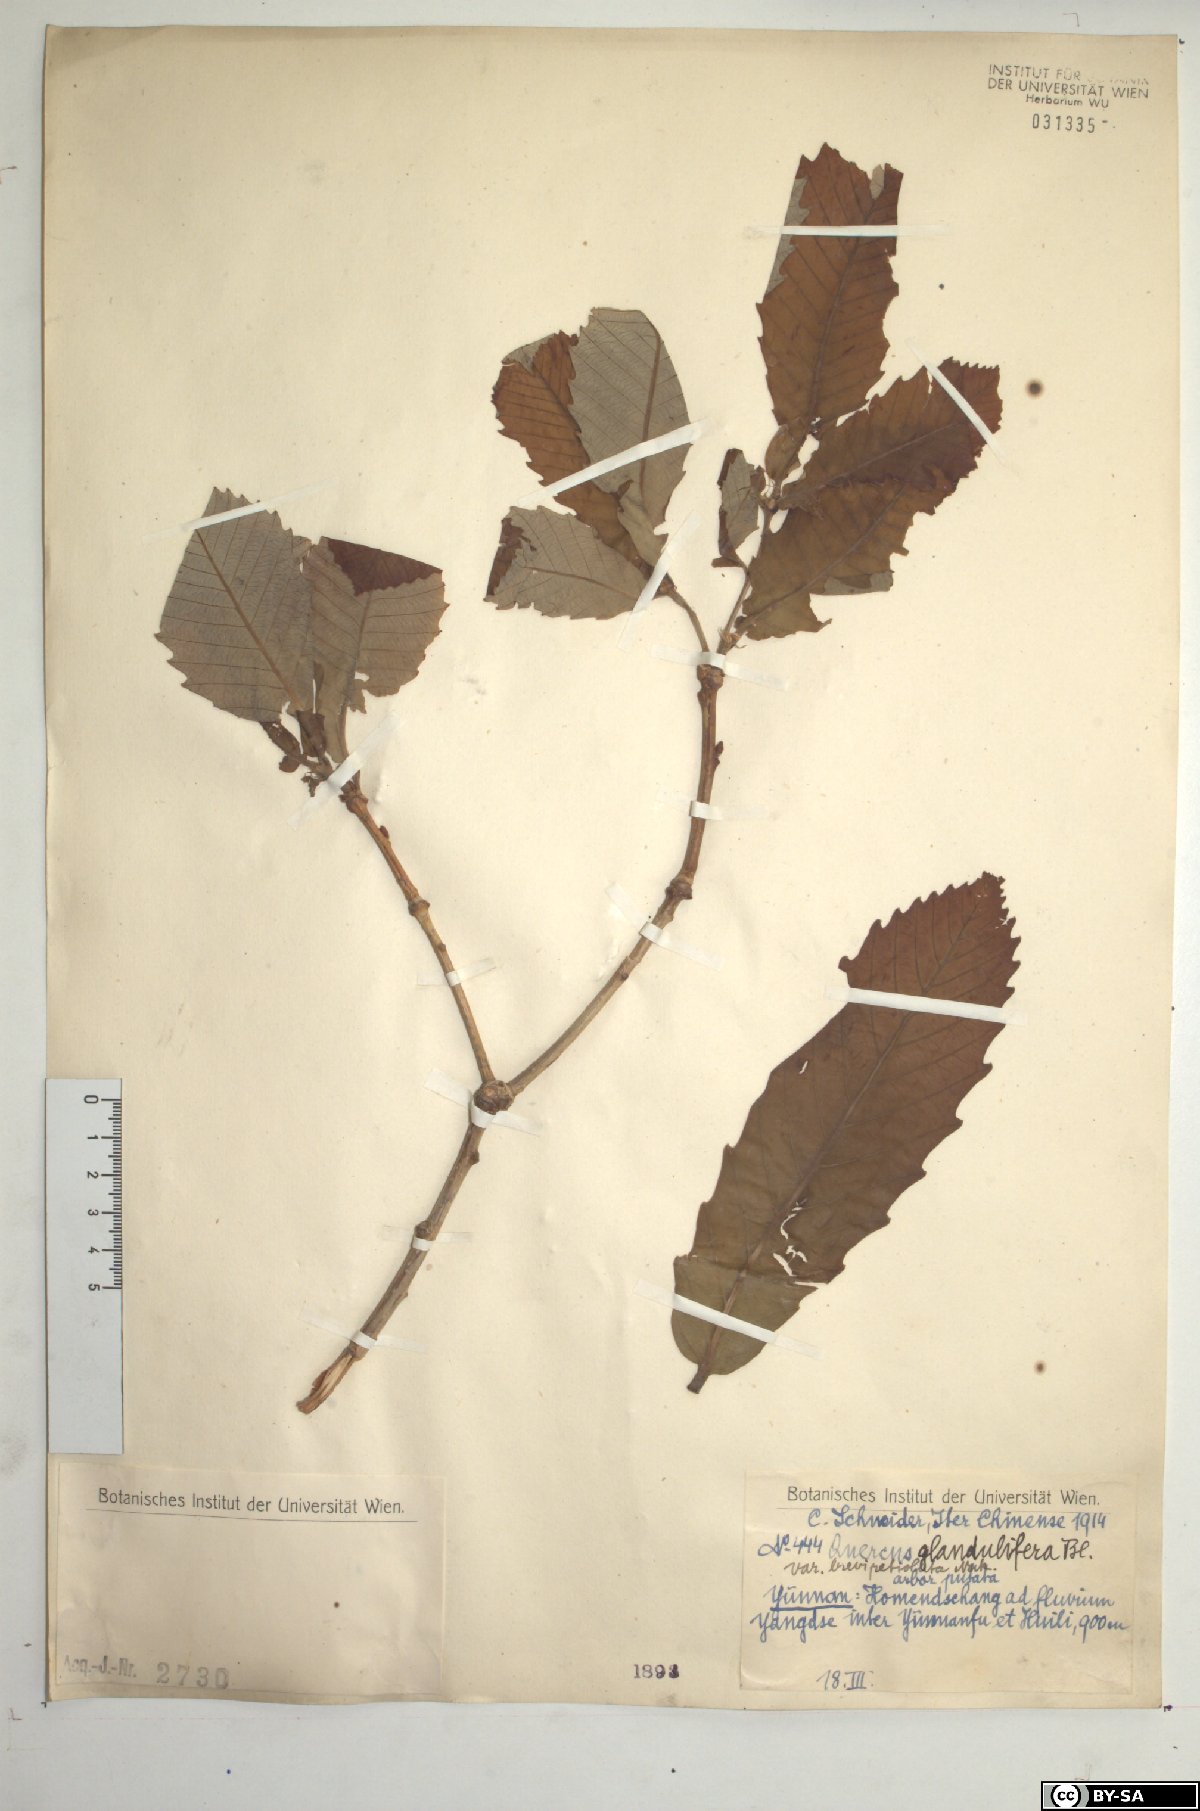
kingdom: Plantae
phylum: Tracheophyta
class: Magnoliopsida
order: Fagales
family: Fagaceae
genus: Quercus
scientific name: Quercus serrata
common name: Bao li
